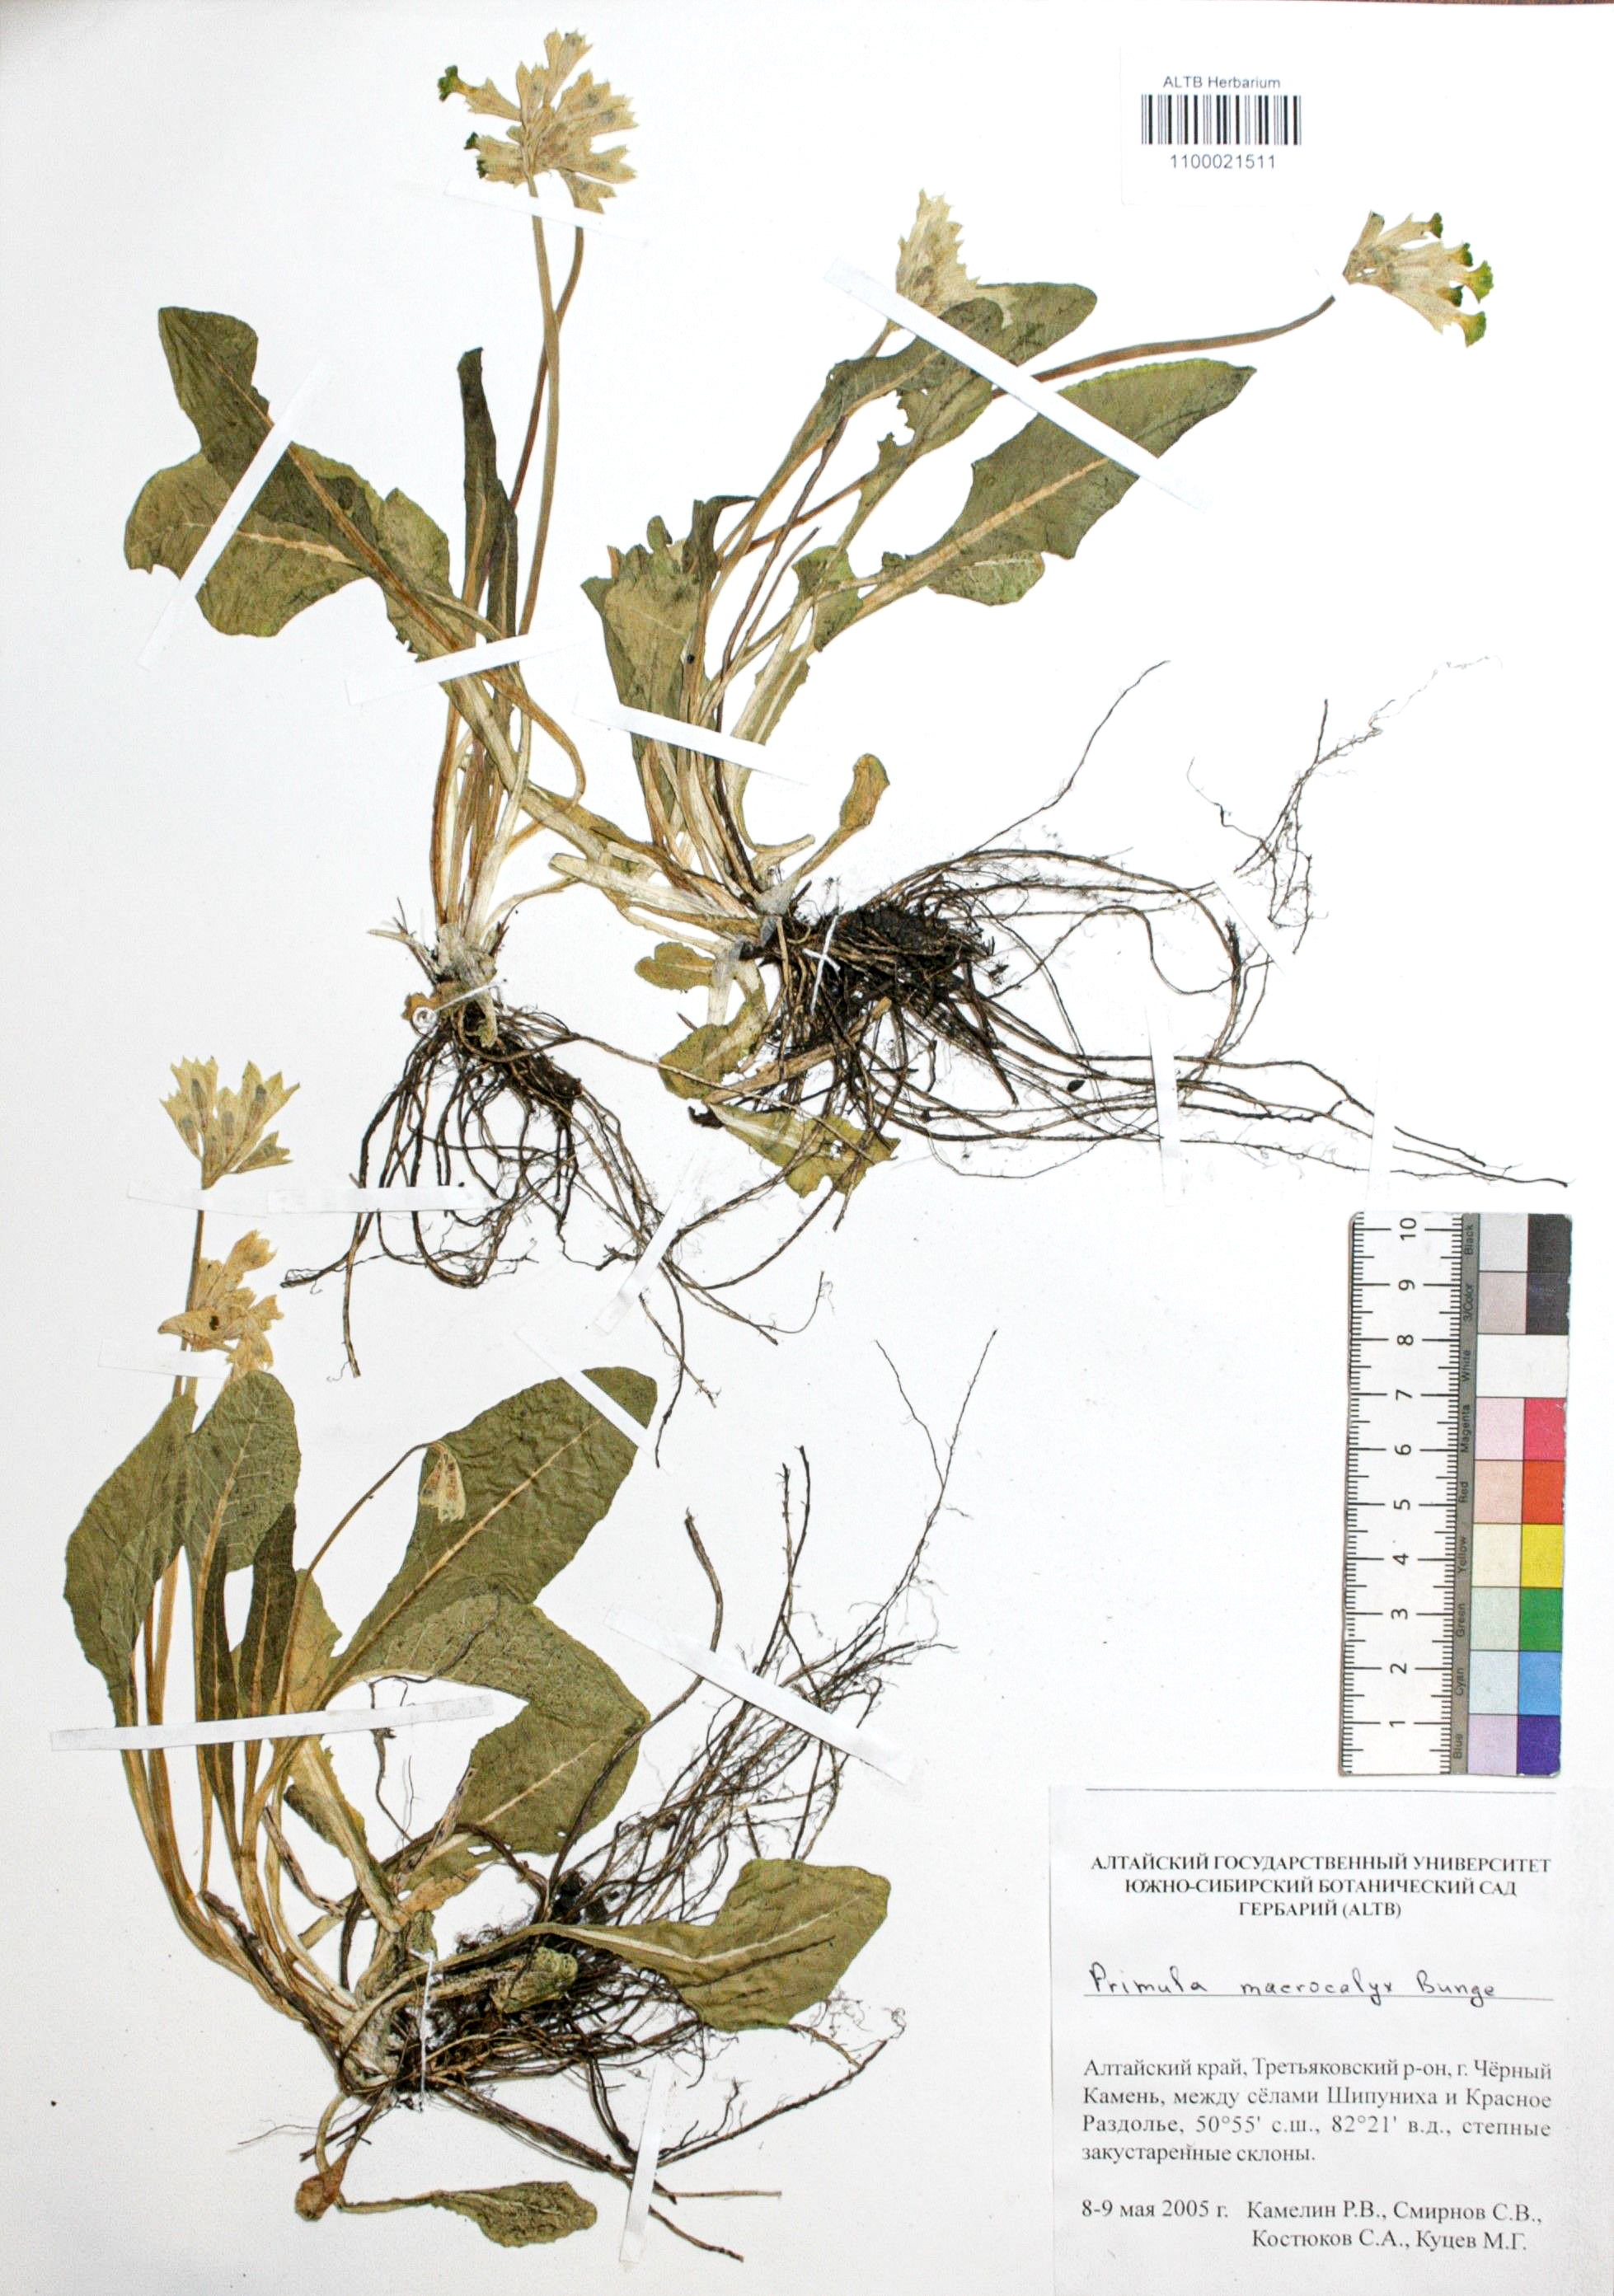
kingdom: Plantae
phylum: Tracheophyta
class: Magnoliopsida
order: Ericales
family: Primulaceae
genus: Primula
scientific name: Primula veris
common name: Cowslip
